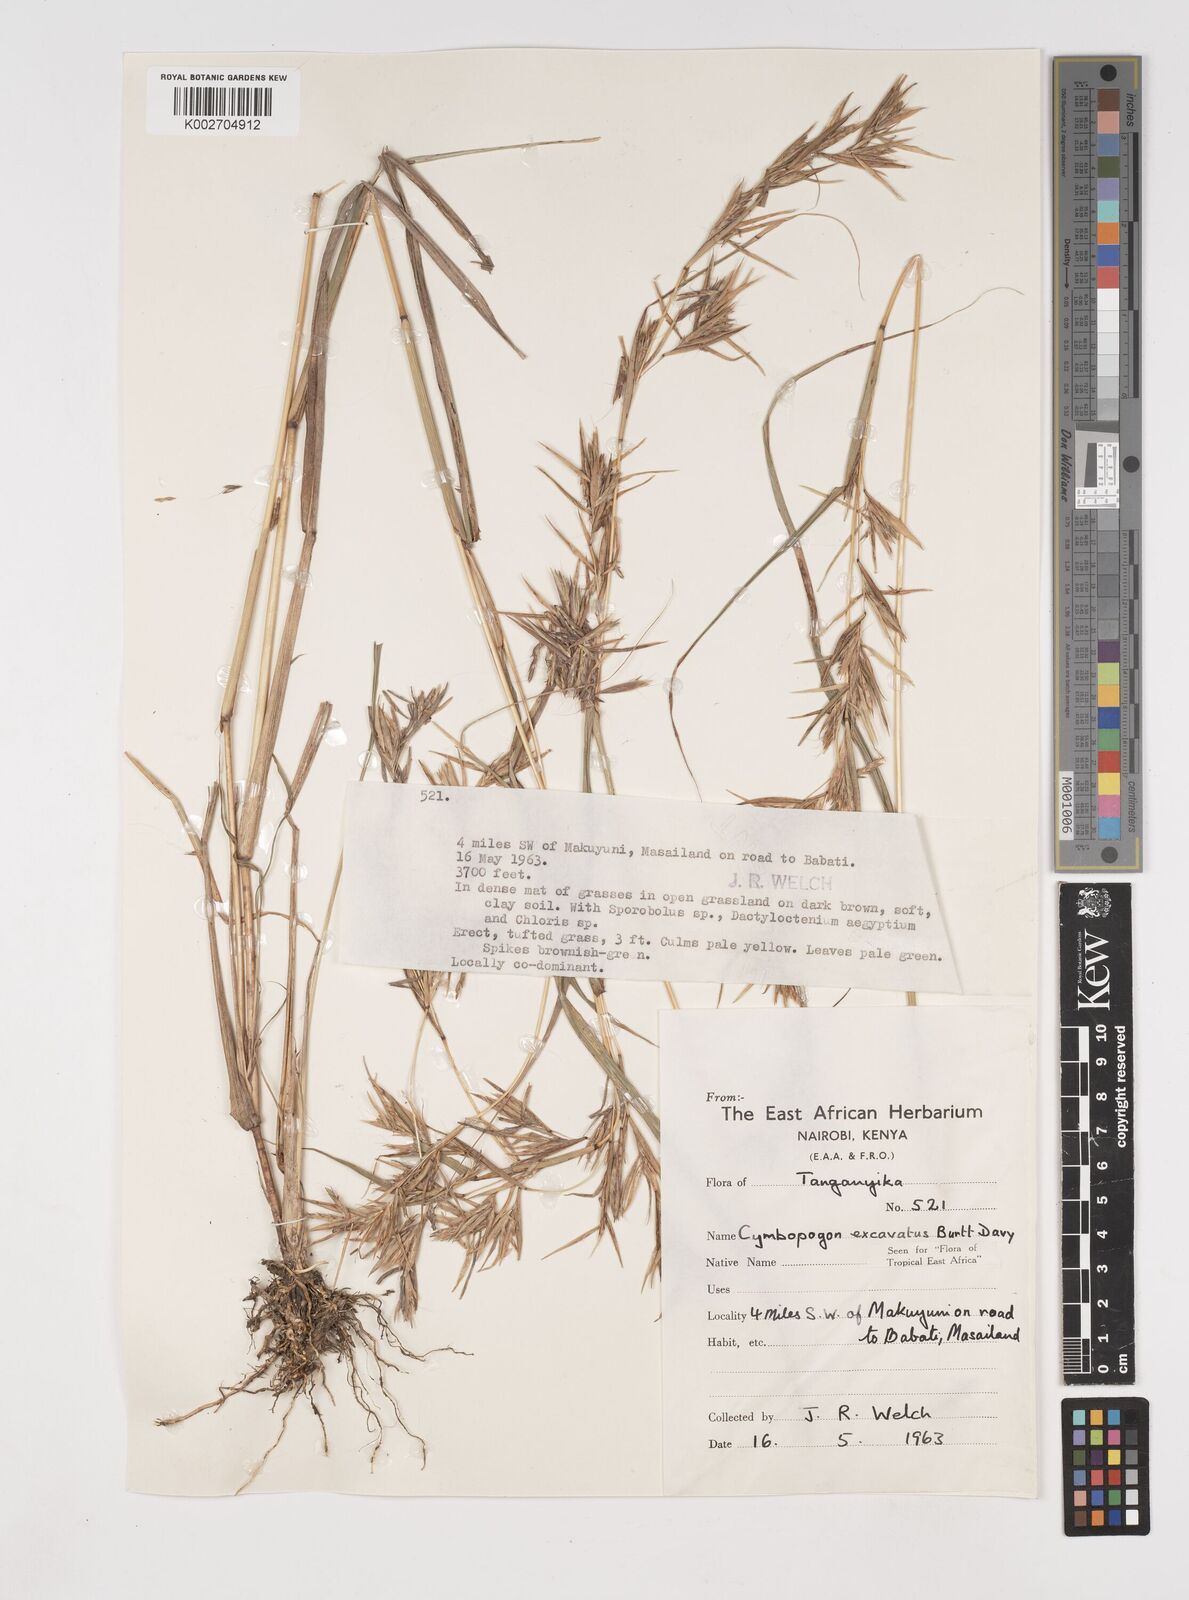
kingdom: Plantae
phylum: Tracheophyta
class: Liliopsida
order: Poales
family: Poaceae
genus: Cymbopogon
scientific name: Cymbopogon caesius
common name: Kachi grass
